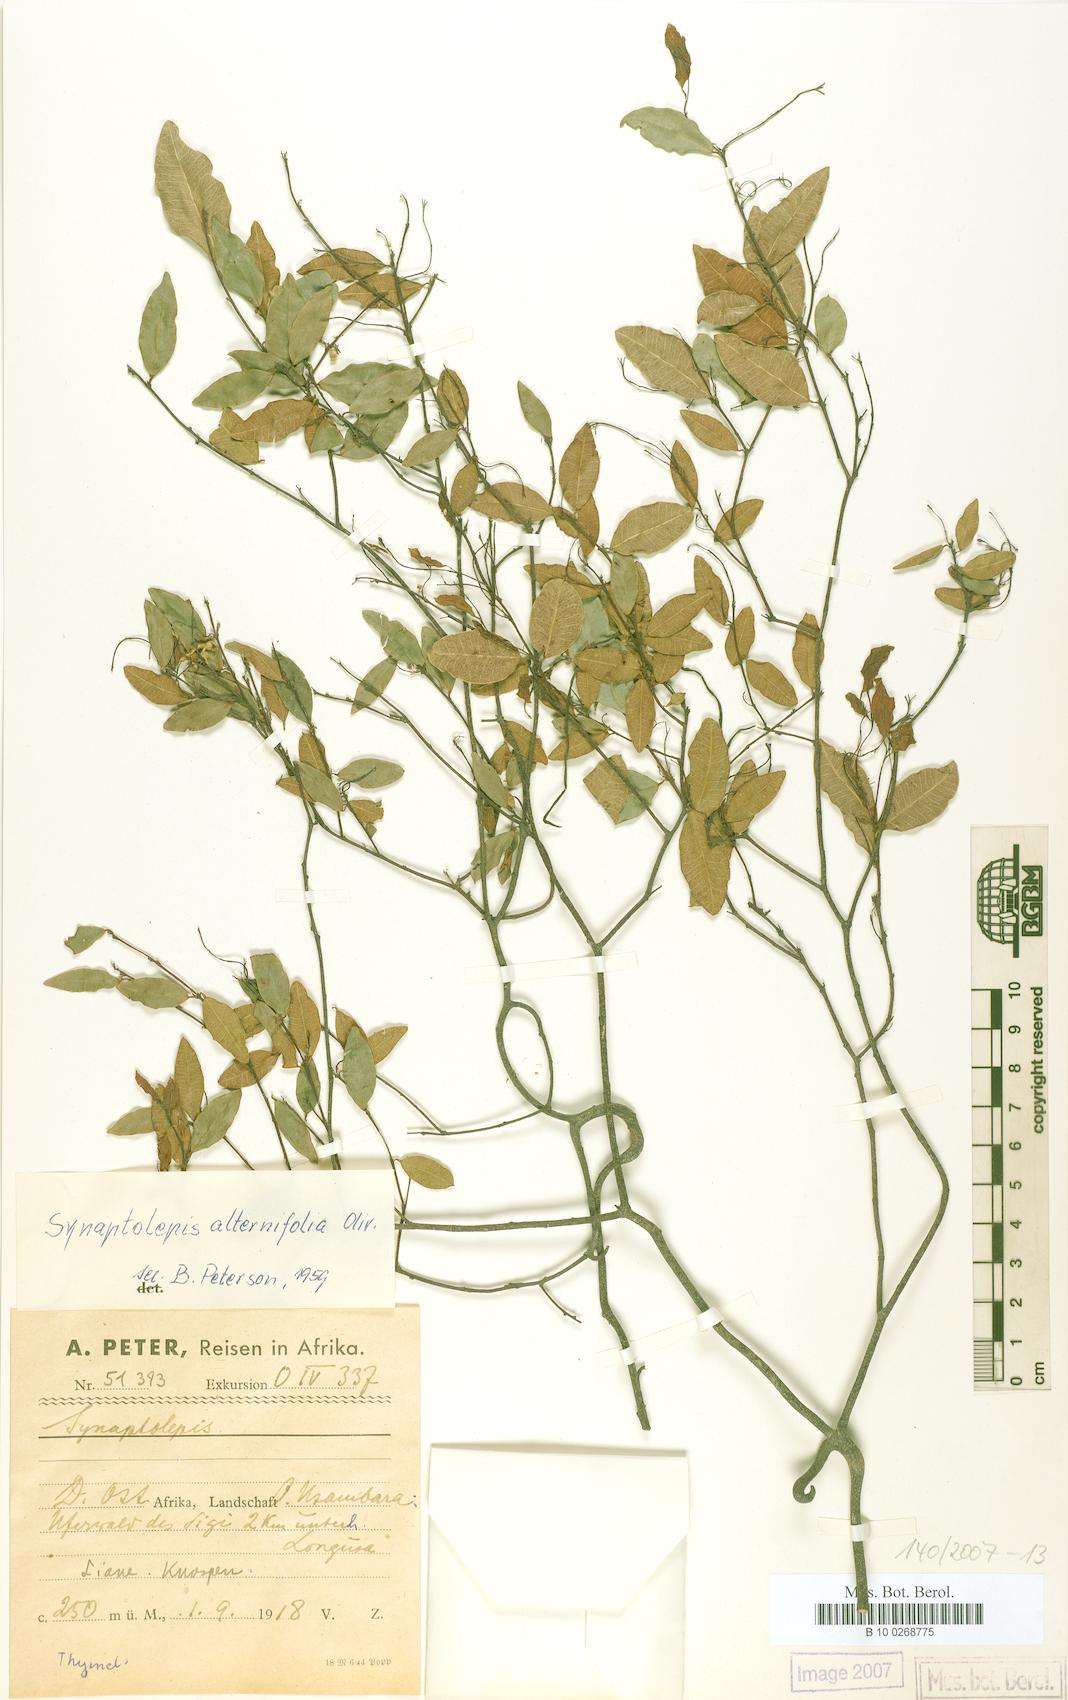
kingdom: Plantae
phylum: Tracheophyta
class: Magnoliopsida
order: Malvales
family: Thymelaeaceae
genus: Synaptolepis
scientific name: Synaptolepis alternifolia
